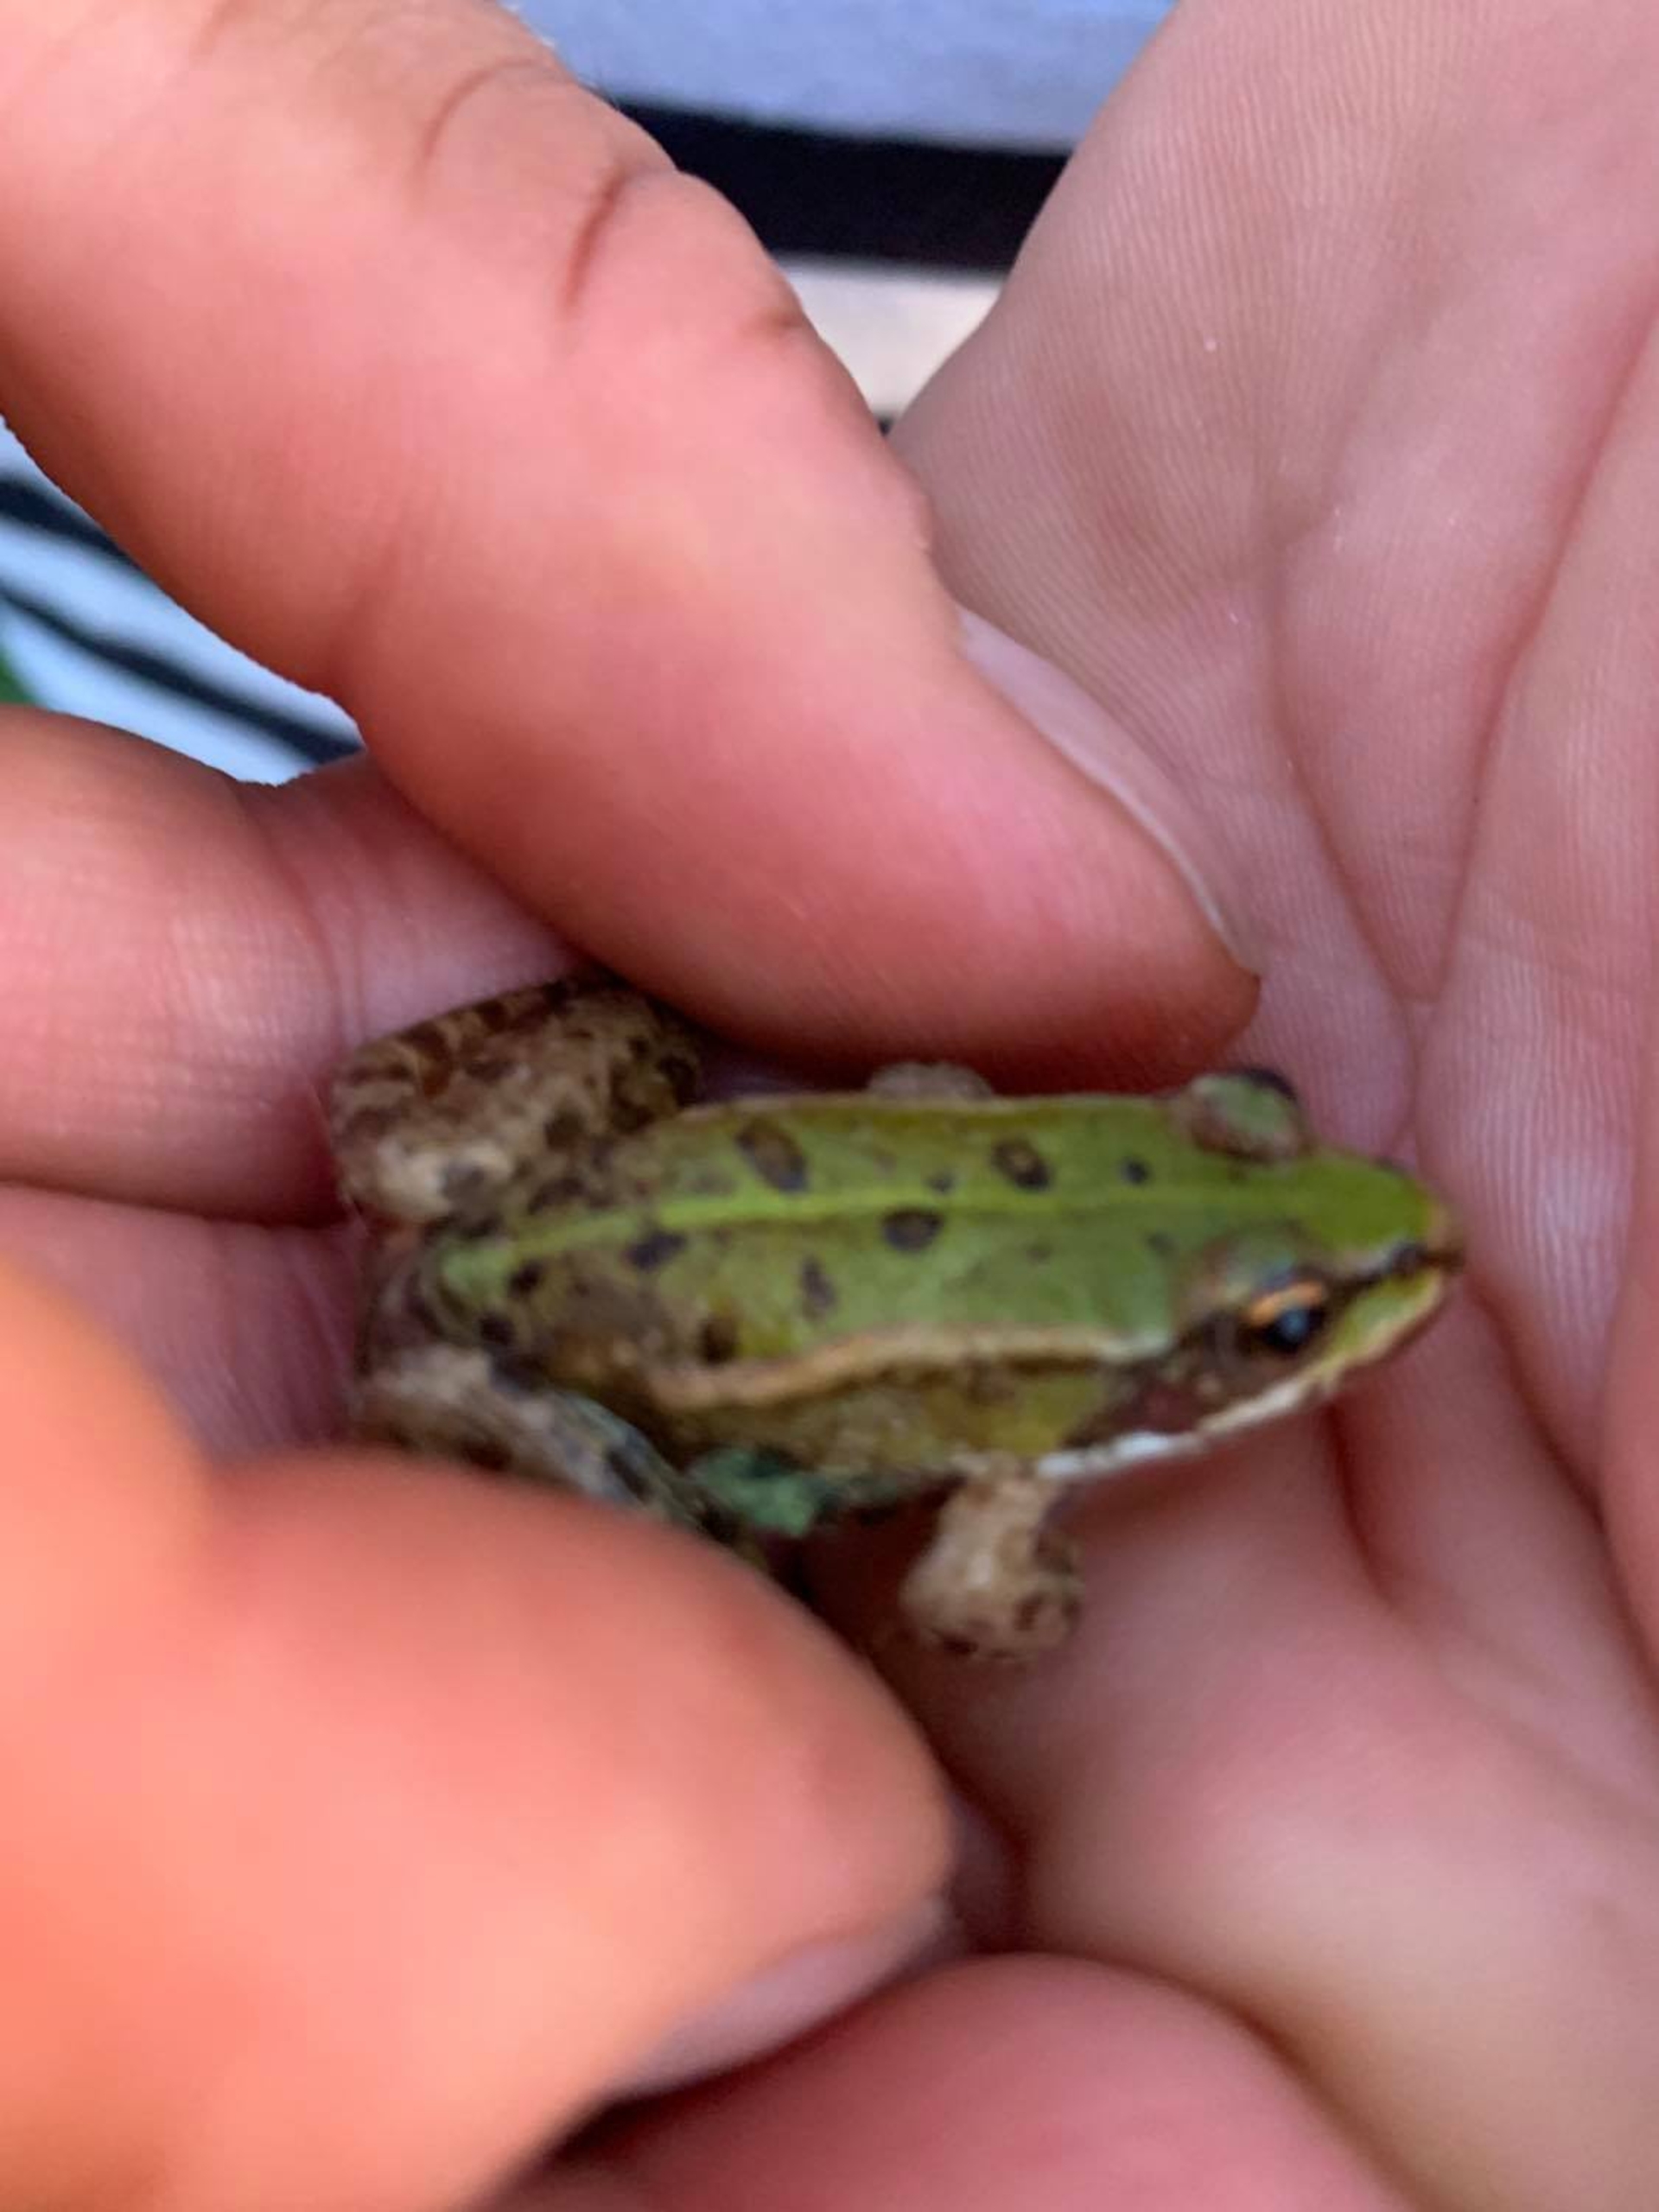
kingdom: Animalia
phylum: Chordata
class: Amphibia
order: Anura
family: Ranidae
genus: Pelophylax
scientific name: Pelophylax lessonae
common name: Grøn frø
